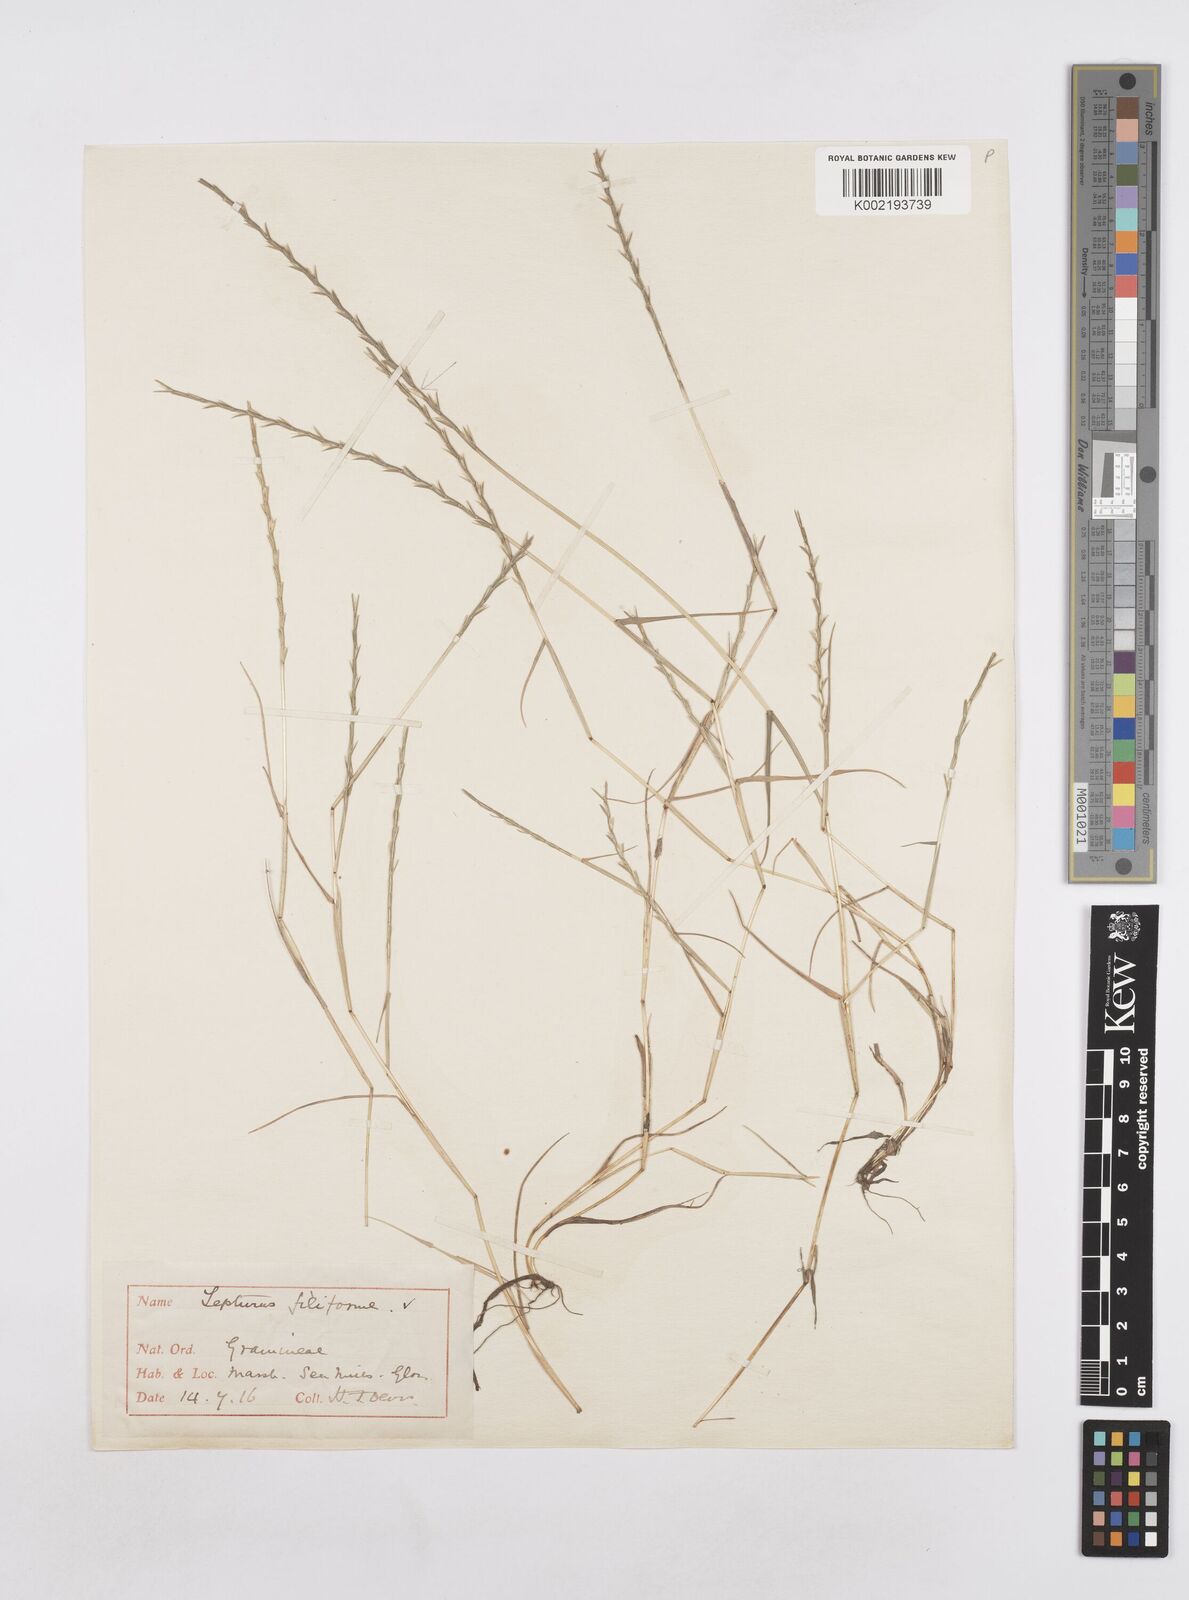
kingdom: Plantae
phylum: Tracheophyta
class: Liliopsida
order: Poales
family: Poaceae
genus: Parapholis
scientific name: Parapholis strigosa
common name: Hard-grass
